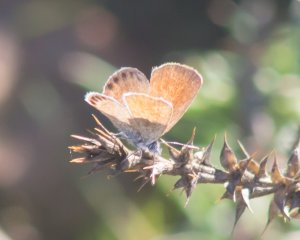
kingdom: Animalia
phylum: Arthropoda
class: Insecta
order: Lepidoptera
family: Lycaenidae
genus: Brephidium
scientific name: Brephidium exilis
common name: Western Pygmy-Blue
